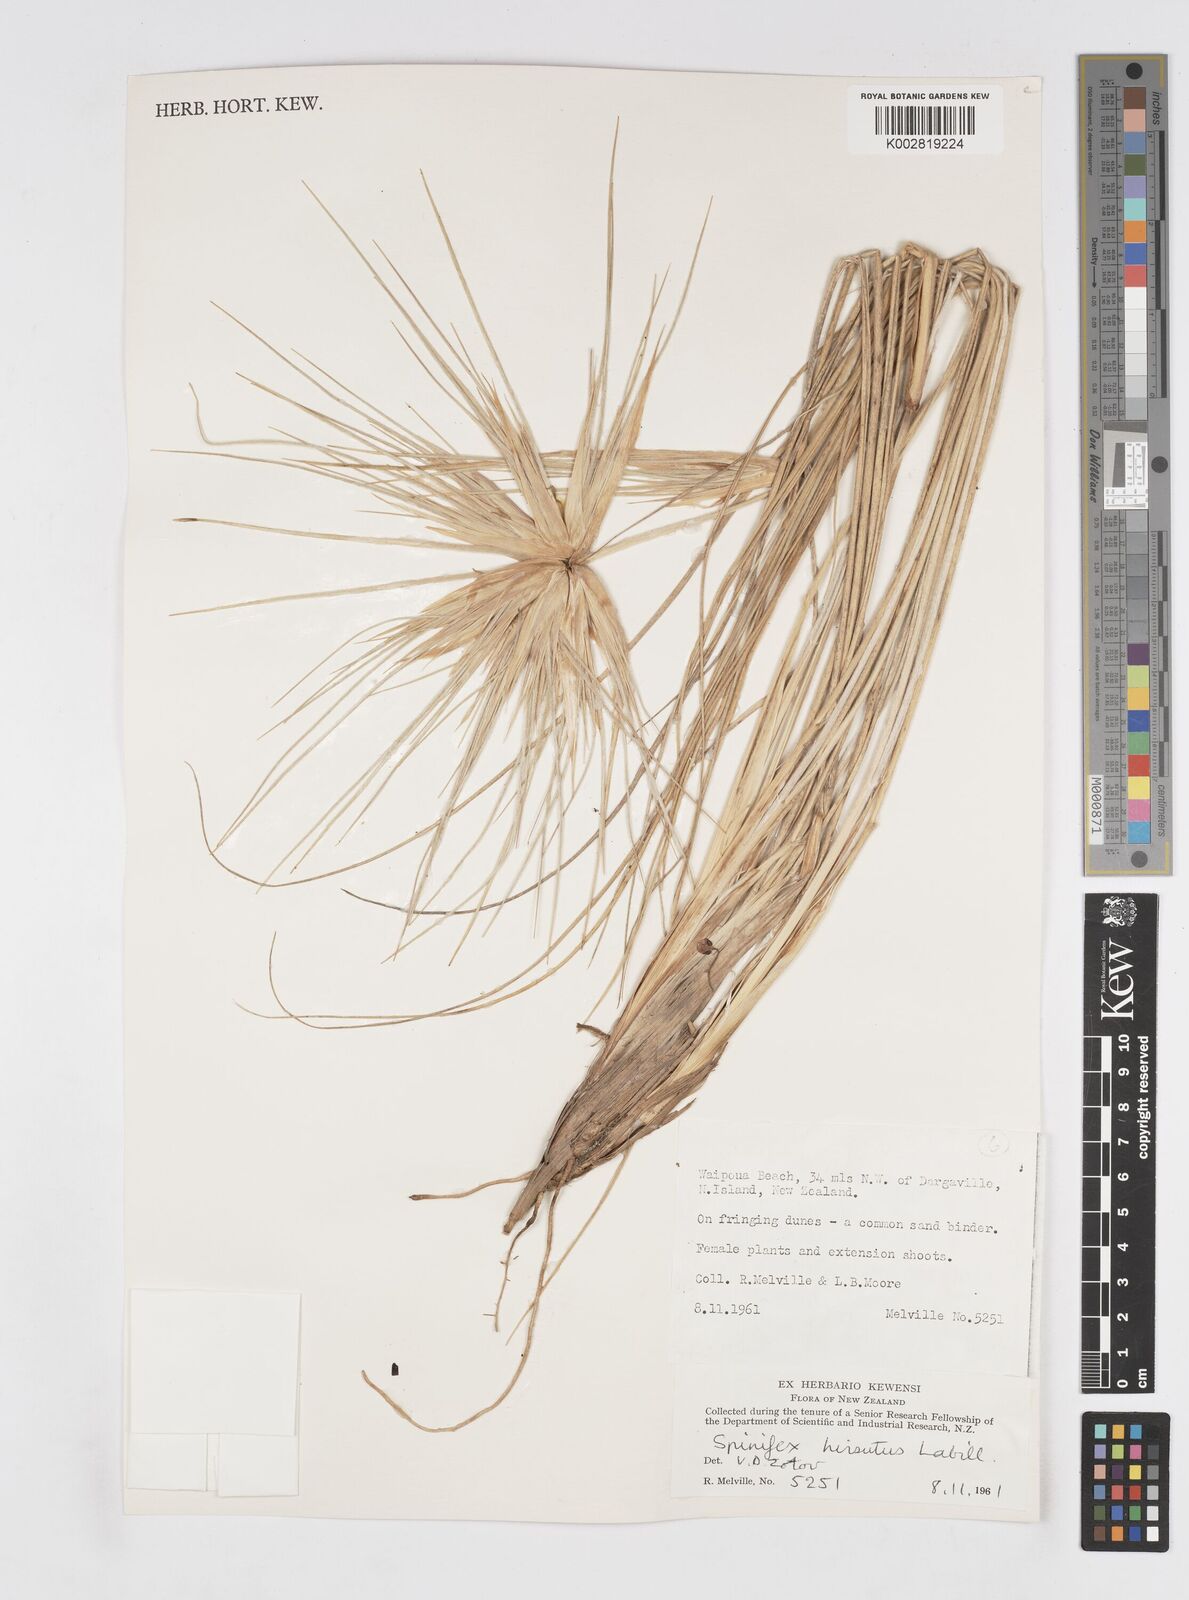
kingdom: Plantae
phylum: Tracheophyta
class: Liliopsida
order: Poales
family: Poaceae
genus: Spinifex
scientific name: Spinifex sericeus
